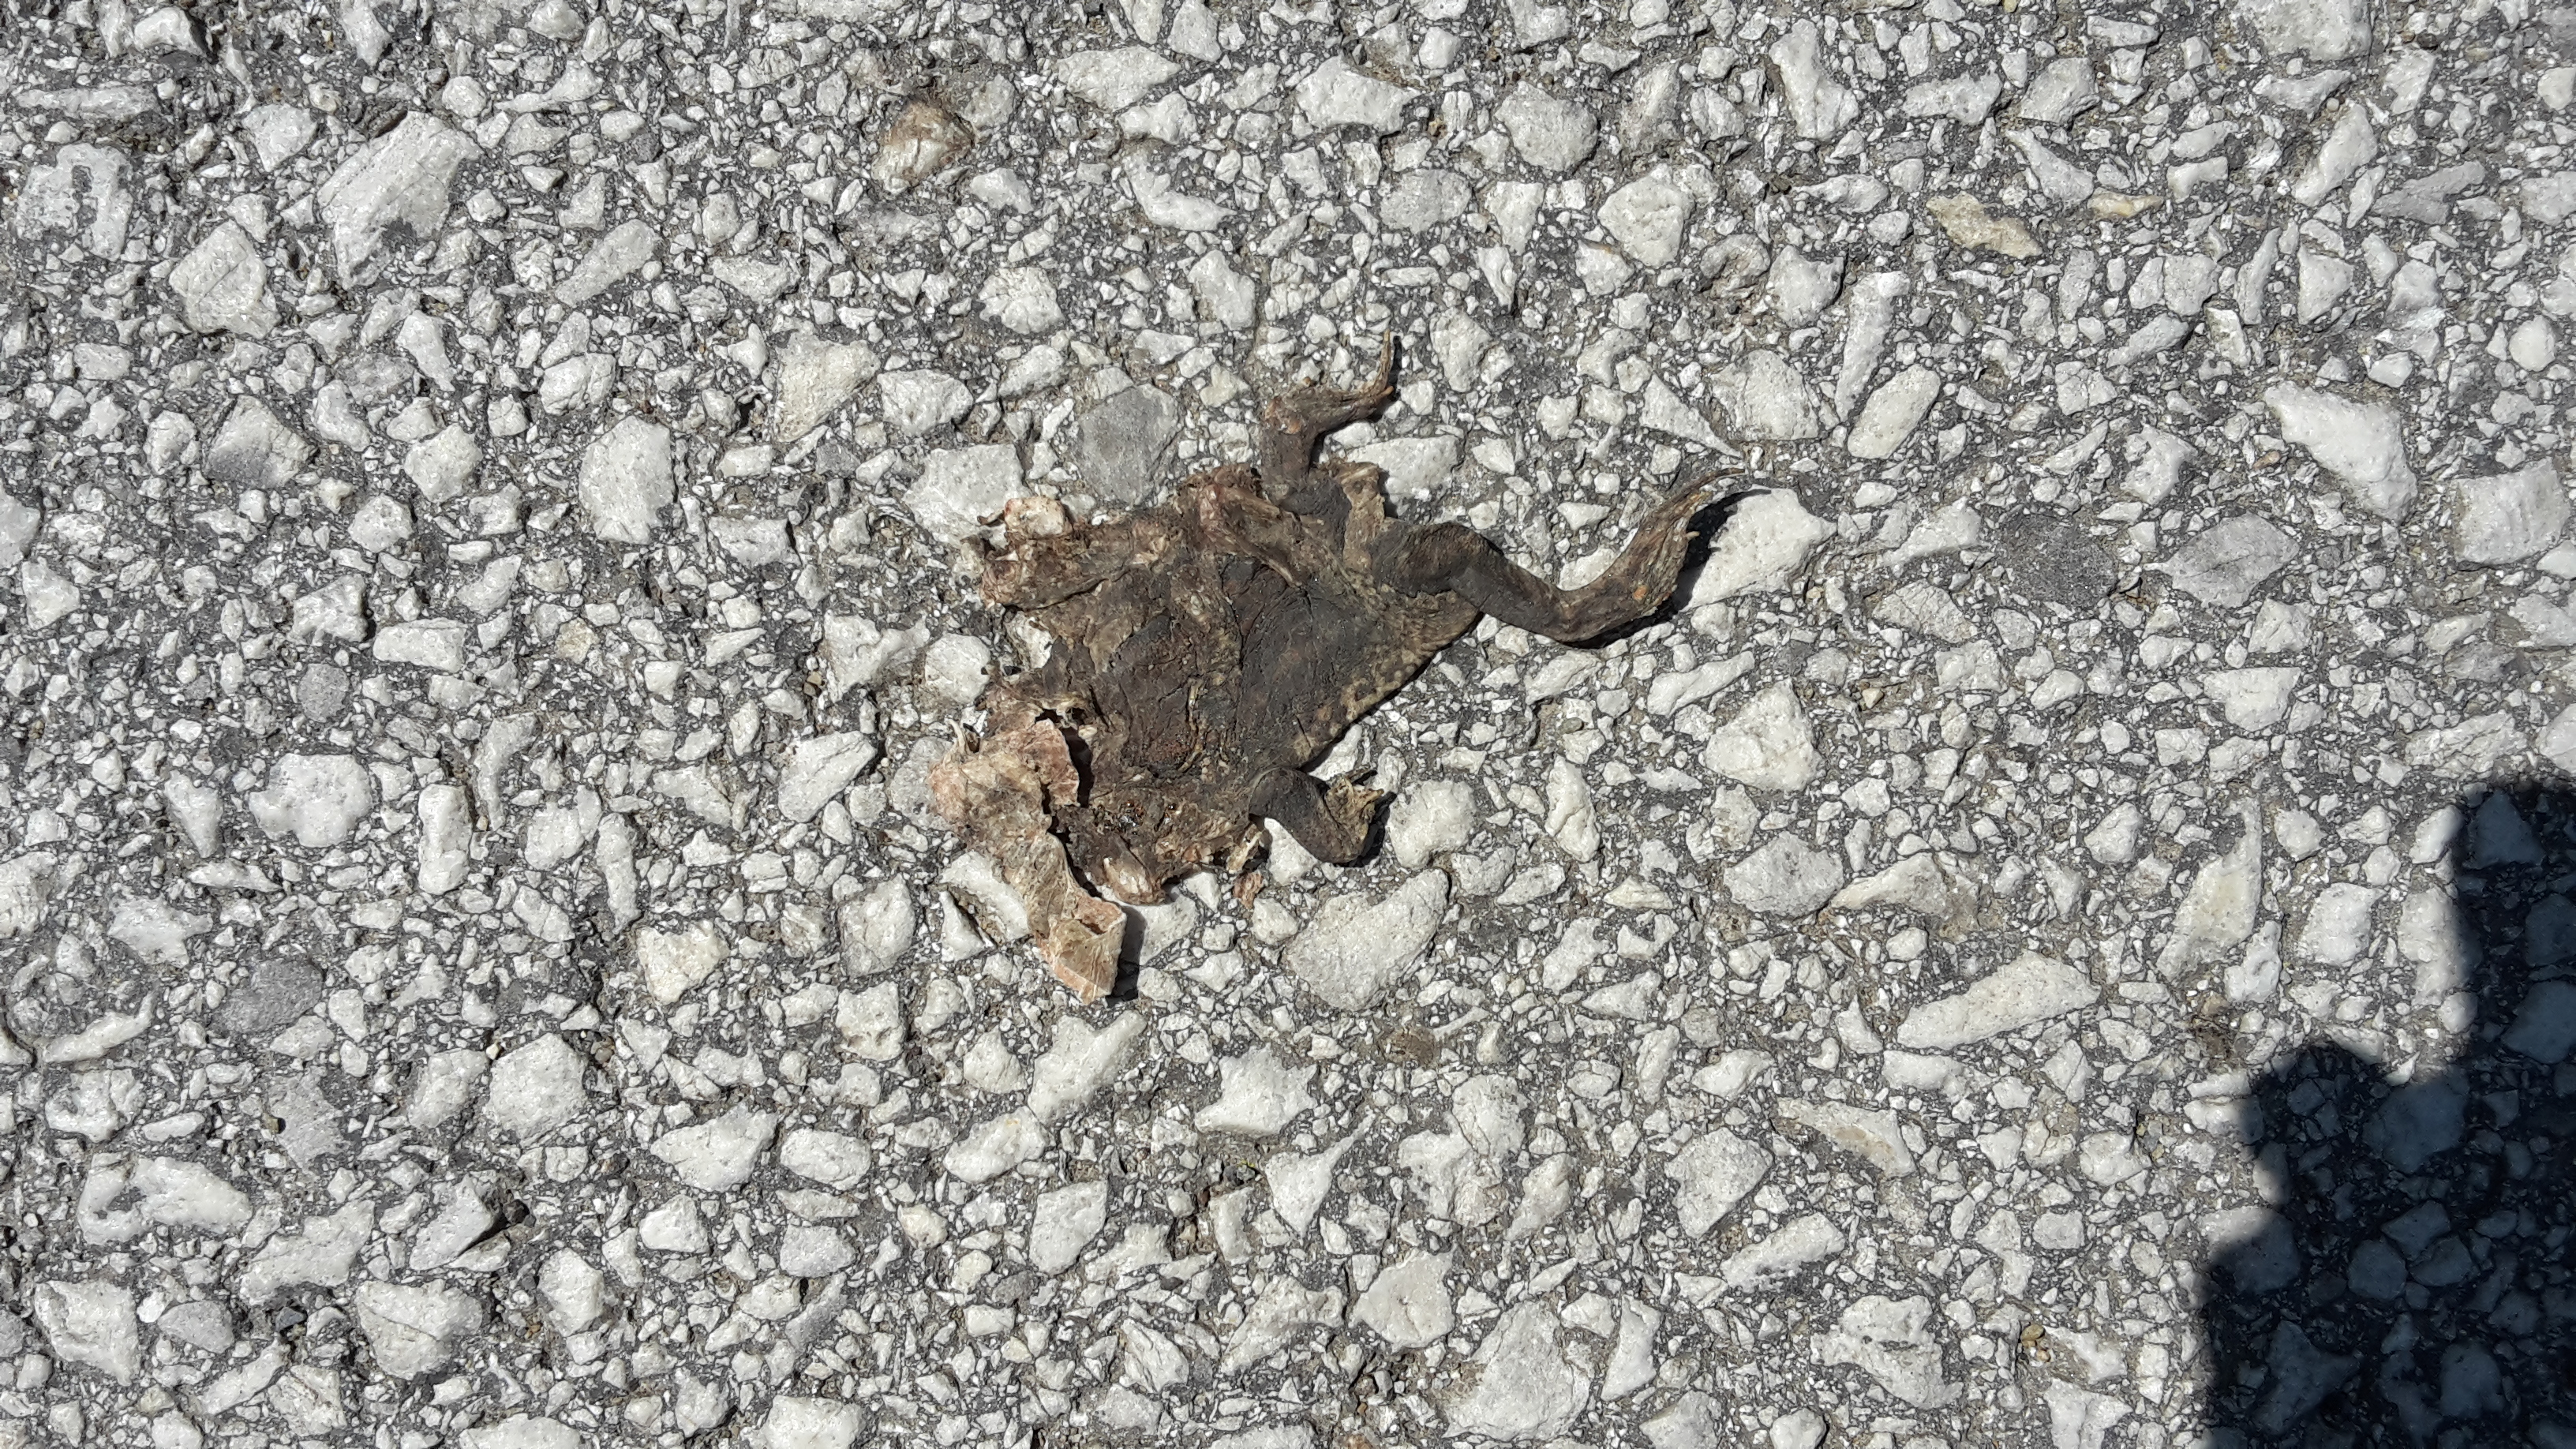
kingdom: Animalia
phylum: Chordata
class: Amphibia
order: Anura
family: Bufonidae
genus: Bufo
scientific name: Bufo bufo
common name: Common toad
